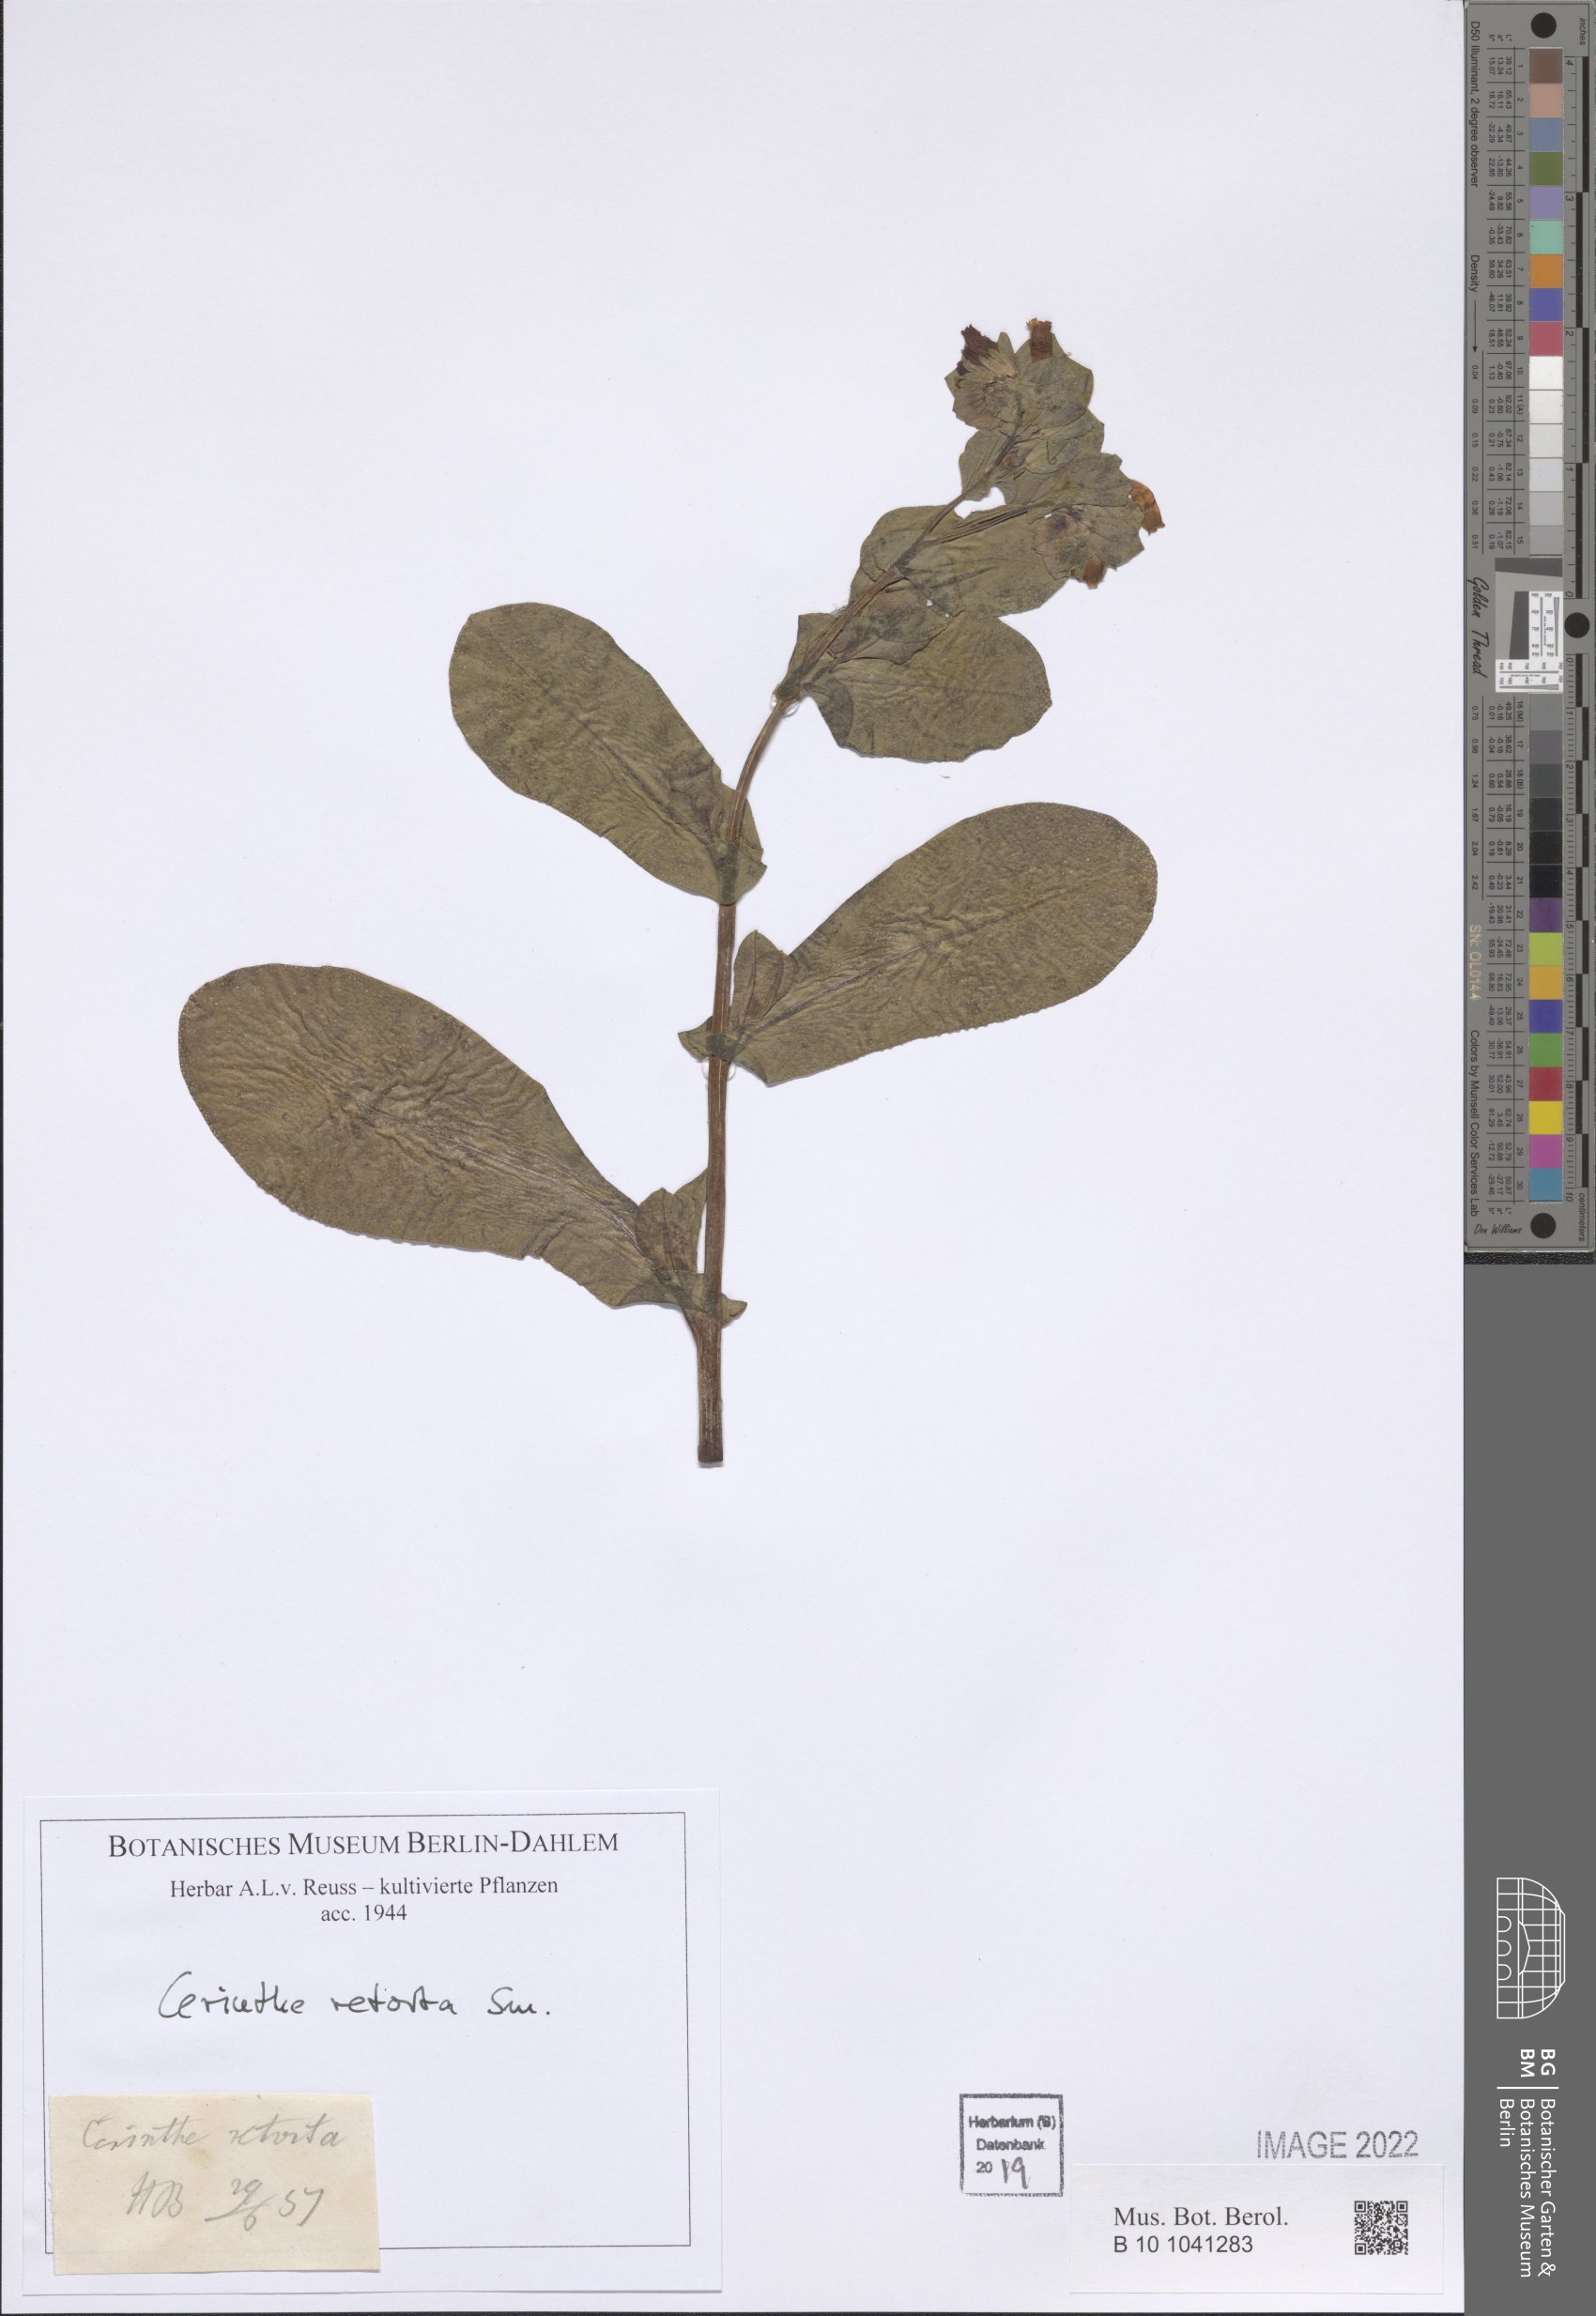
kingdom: Plantae
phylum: Tracheophyta
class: Magnoliopsida
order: Boraginales
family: Boraginaceae
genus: Cerinthe
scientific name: Cerinthe retorta
